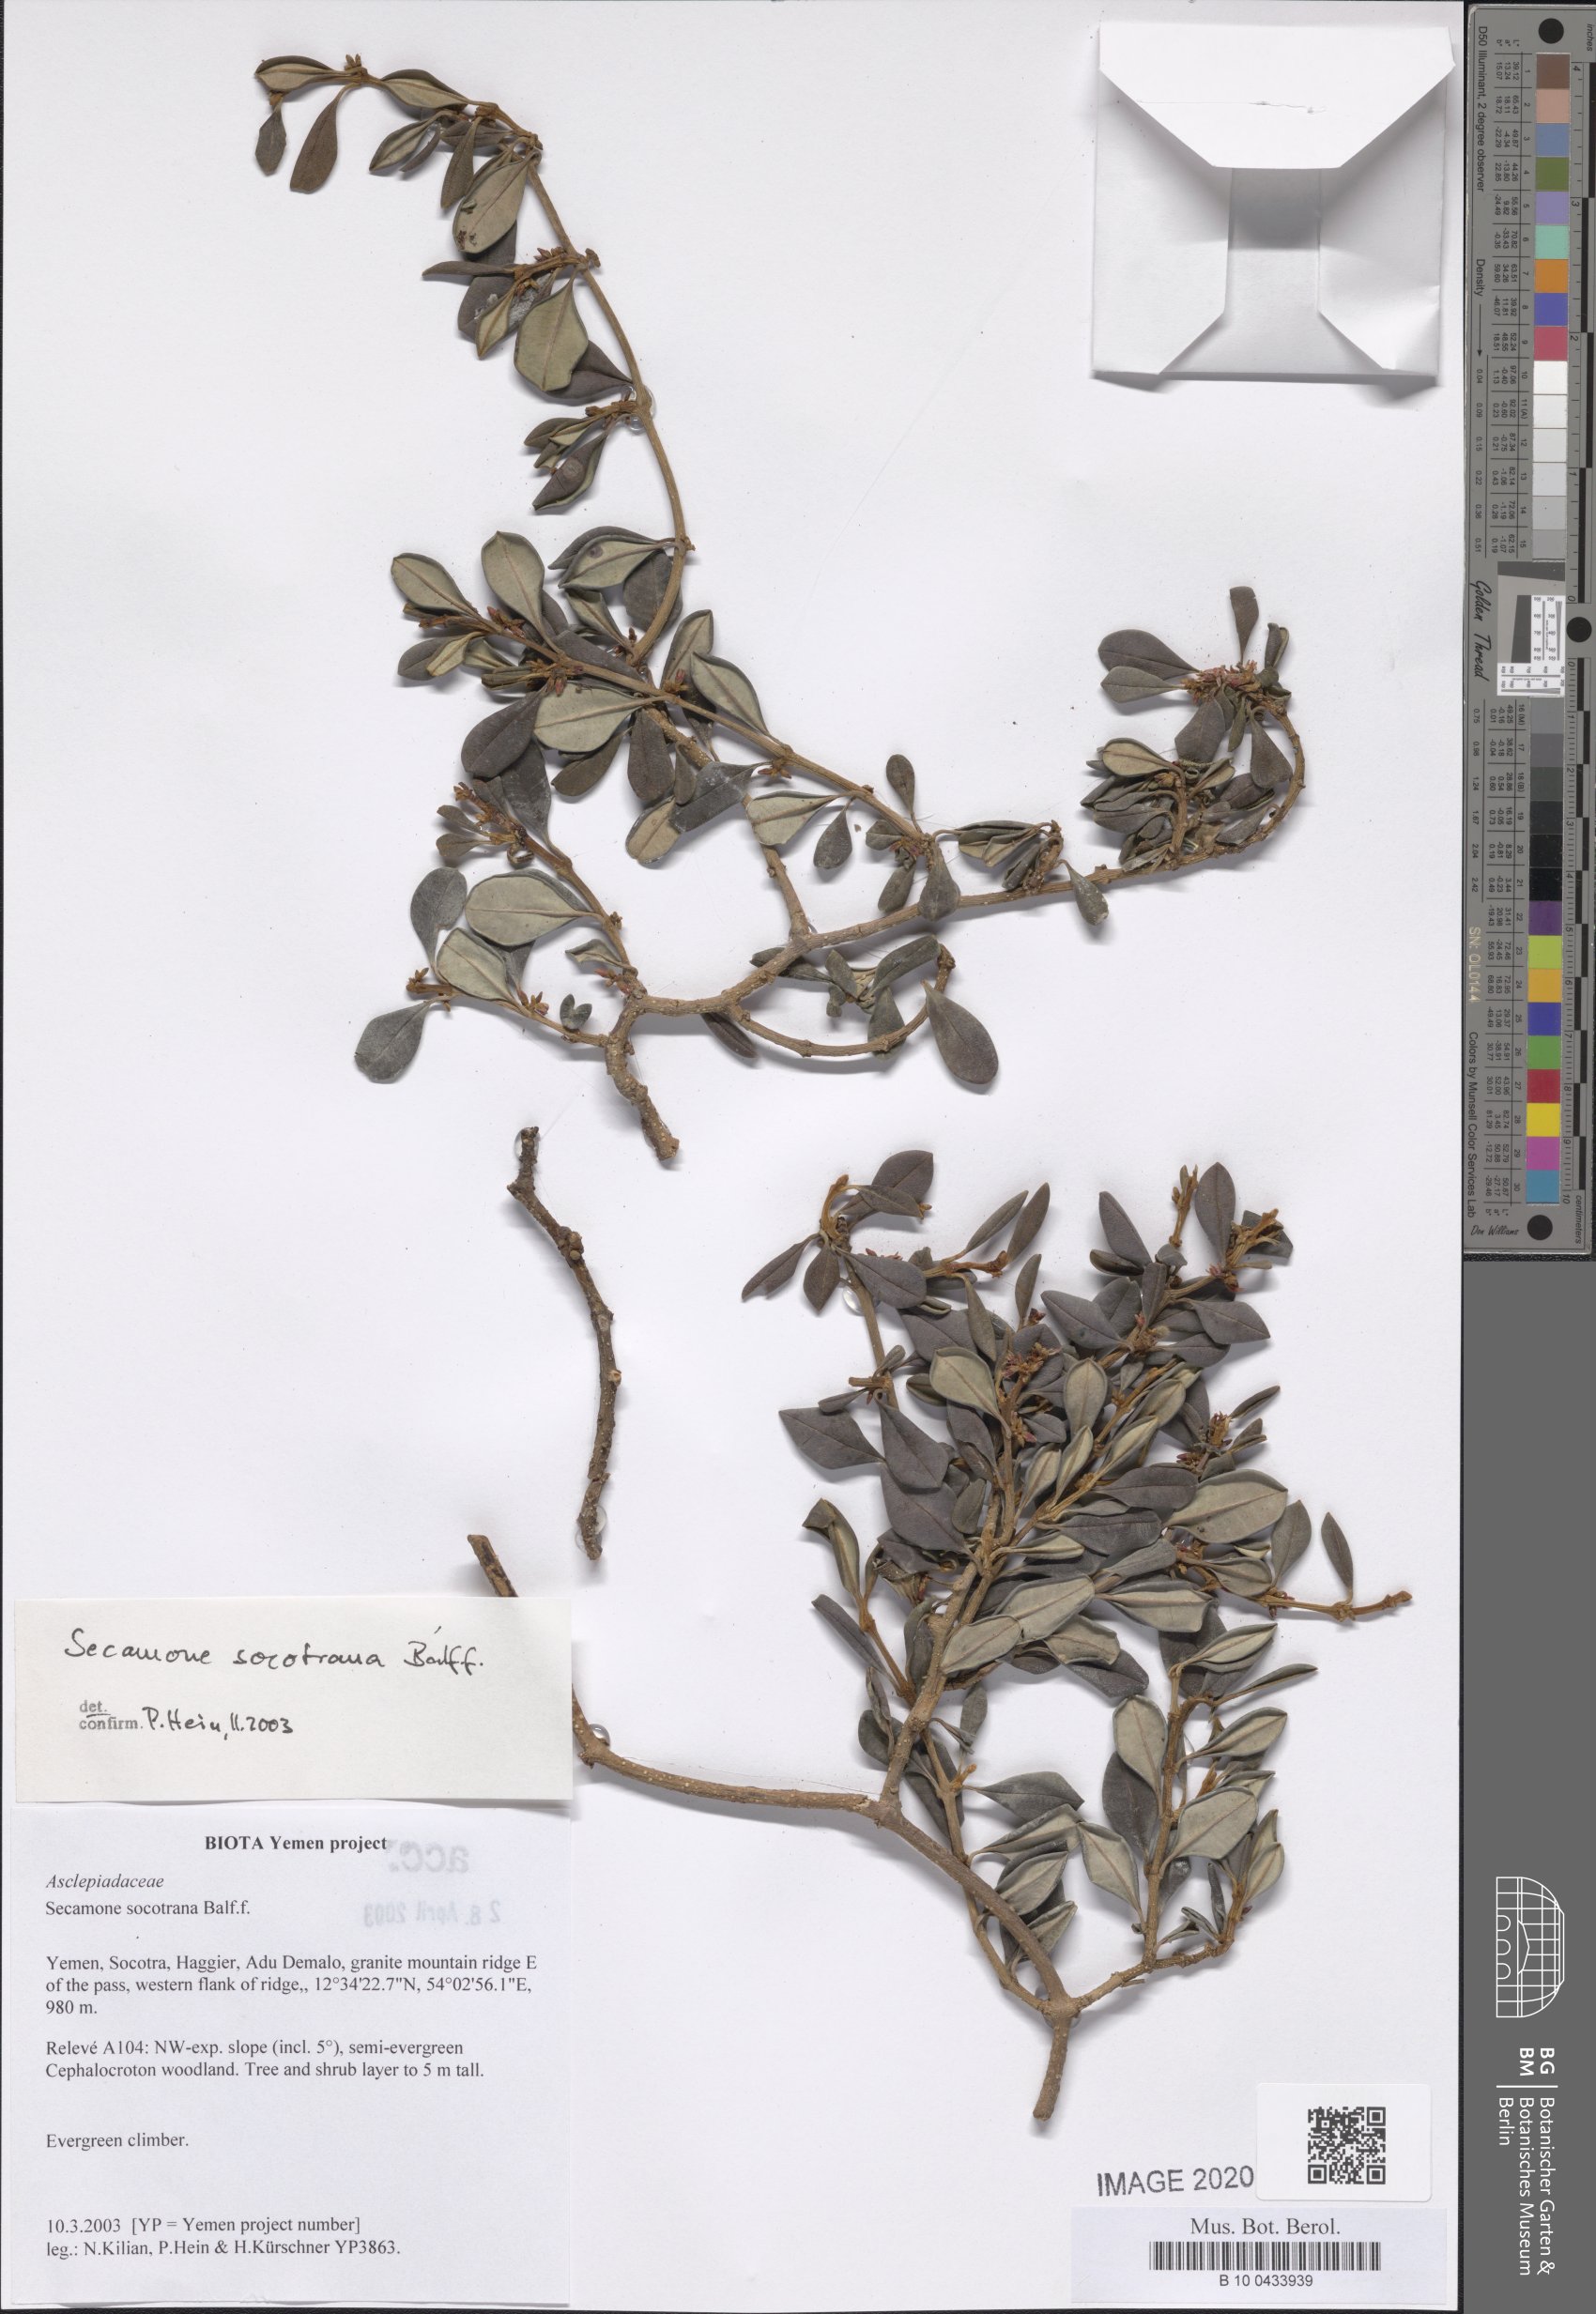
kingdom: Plantae
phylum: Tracheophyta
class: Magnoliopsida
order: Gentianales
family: Apocynaceae
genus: Secamone
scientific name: Secamone socotrana
